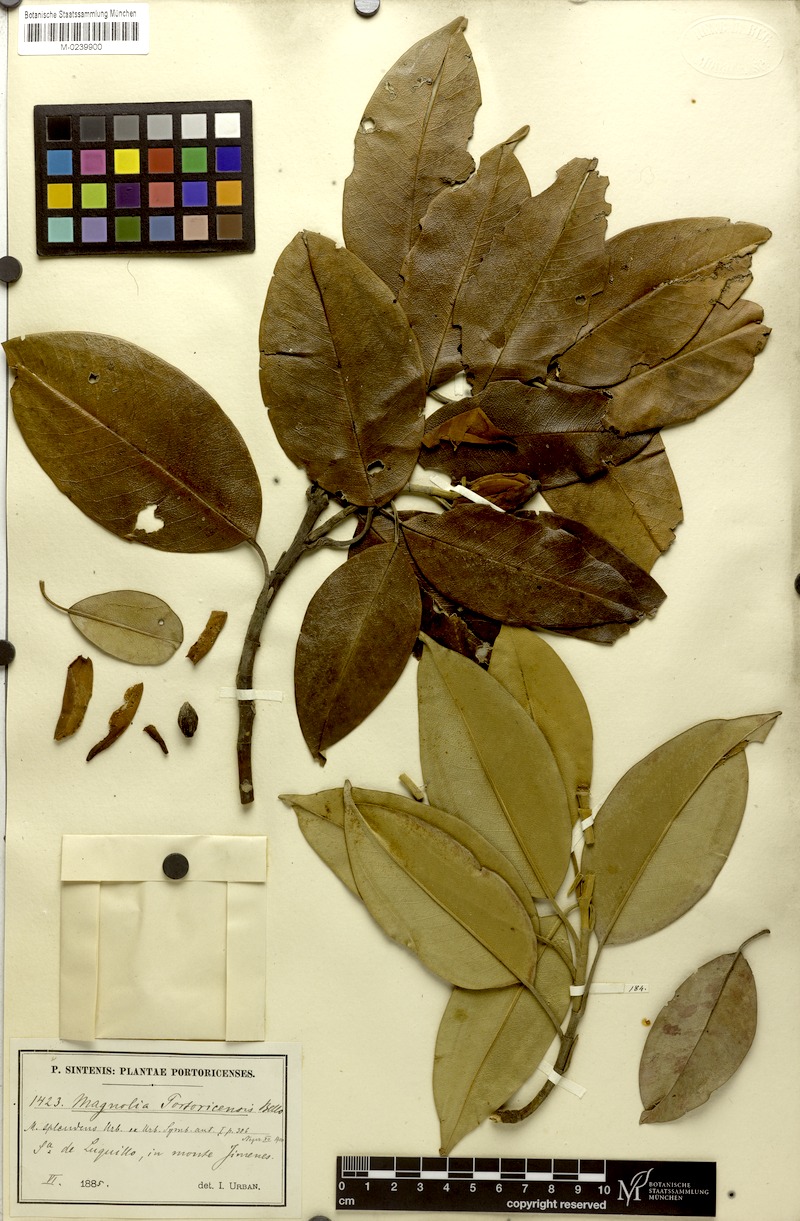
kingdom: Plantae
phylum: Tracheophyta
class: Magnoliopsida
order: Magnoliales
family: Magnoliaceae
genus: Magnolia
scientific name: Magnolia splendens
